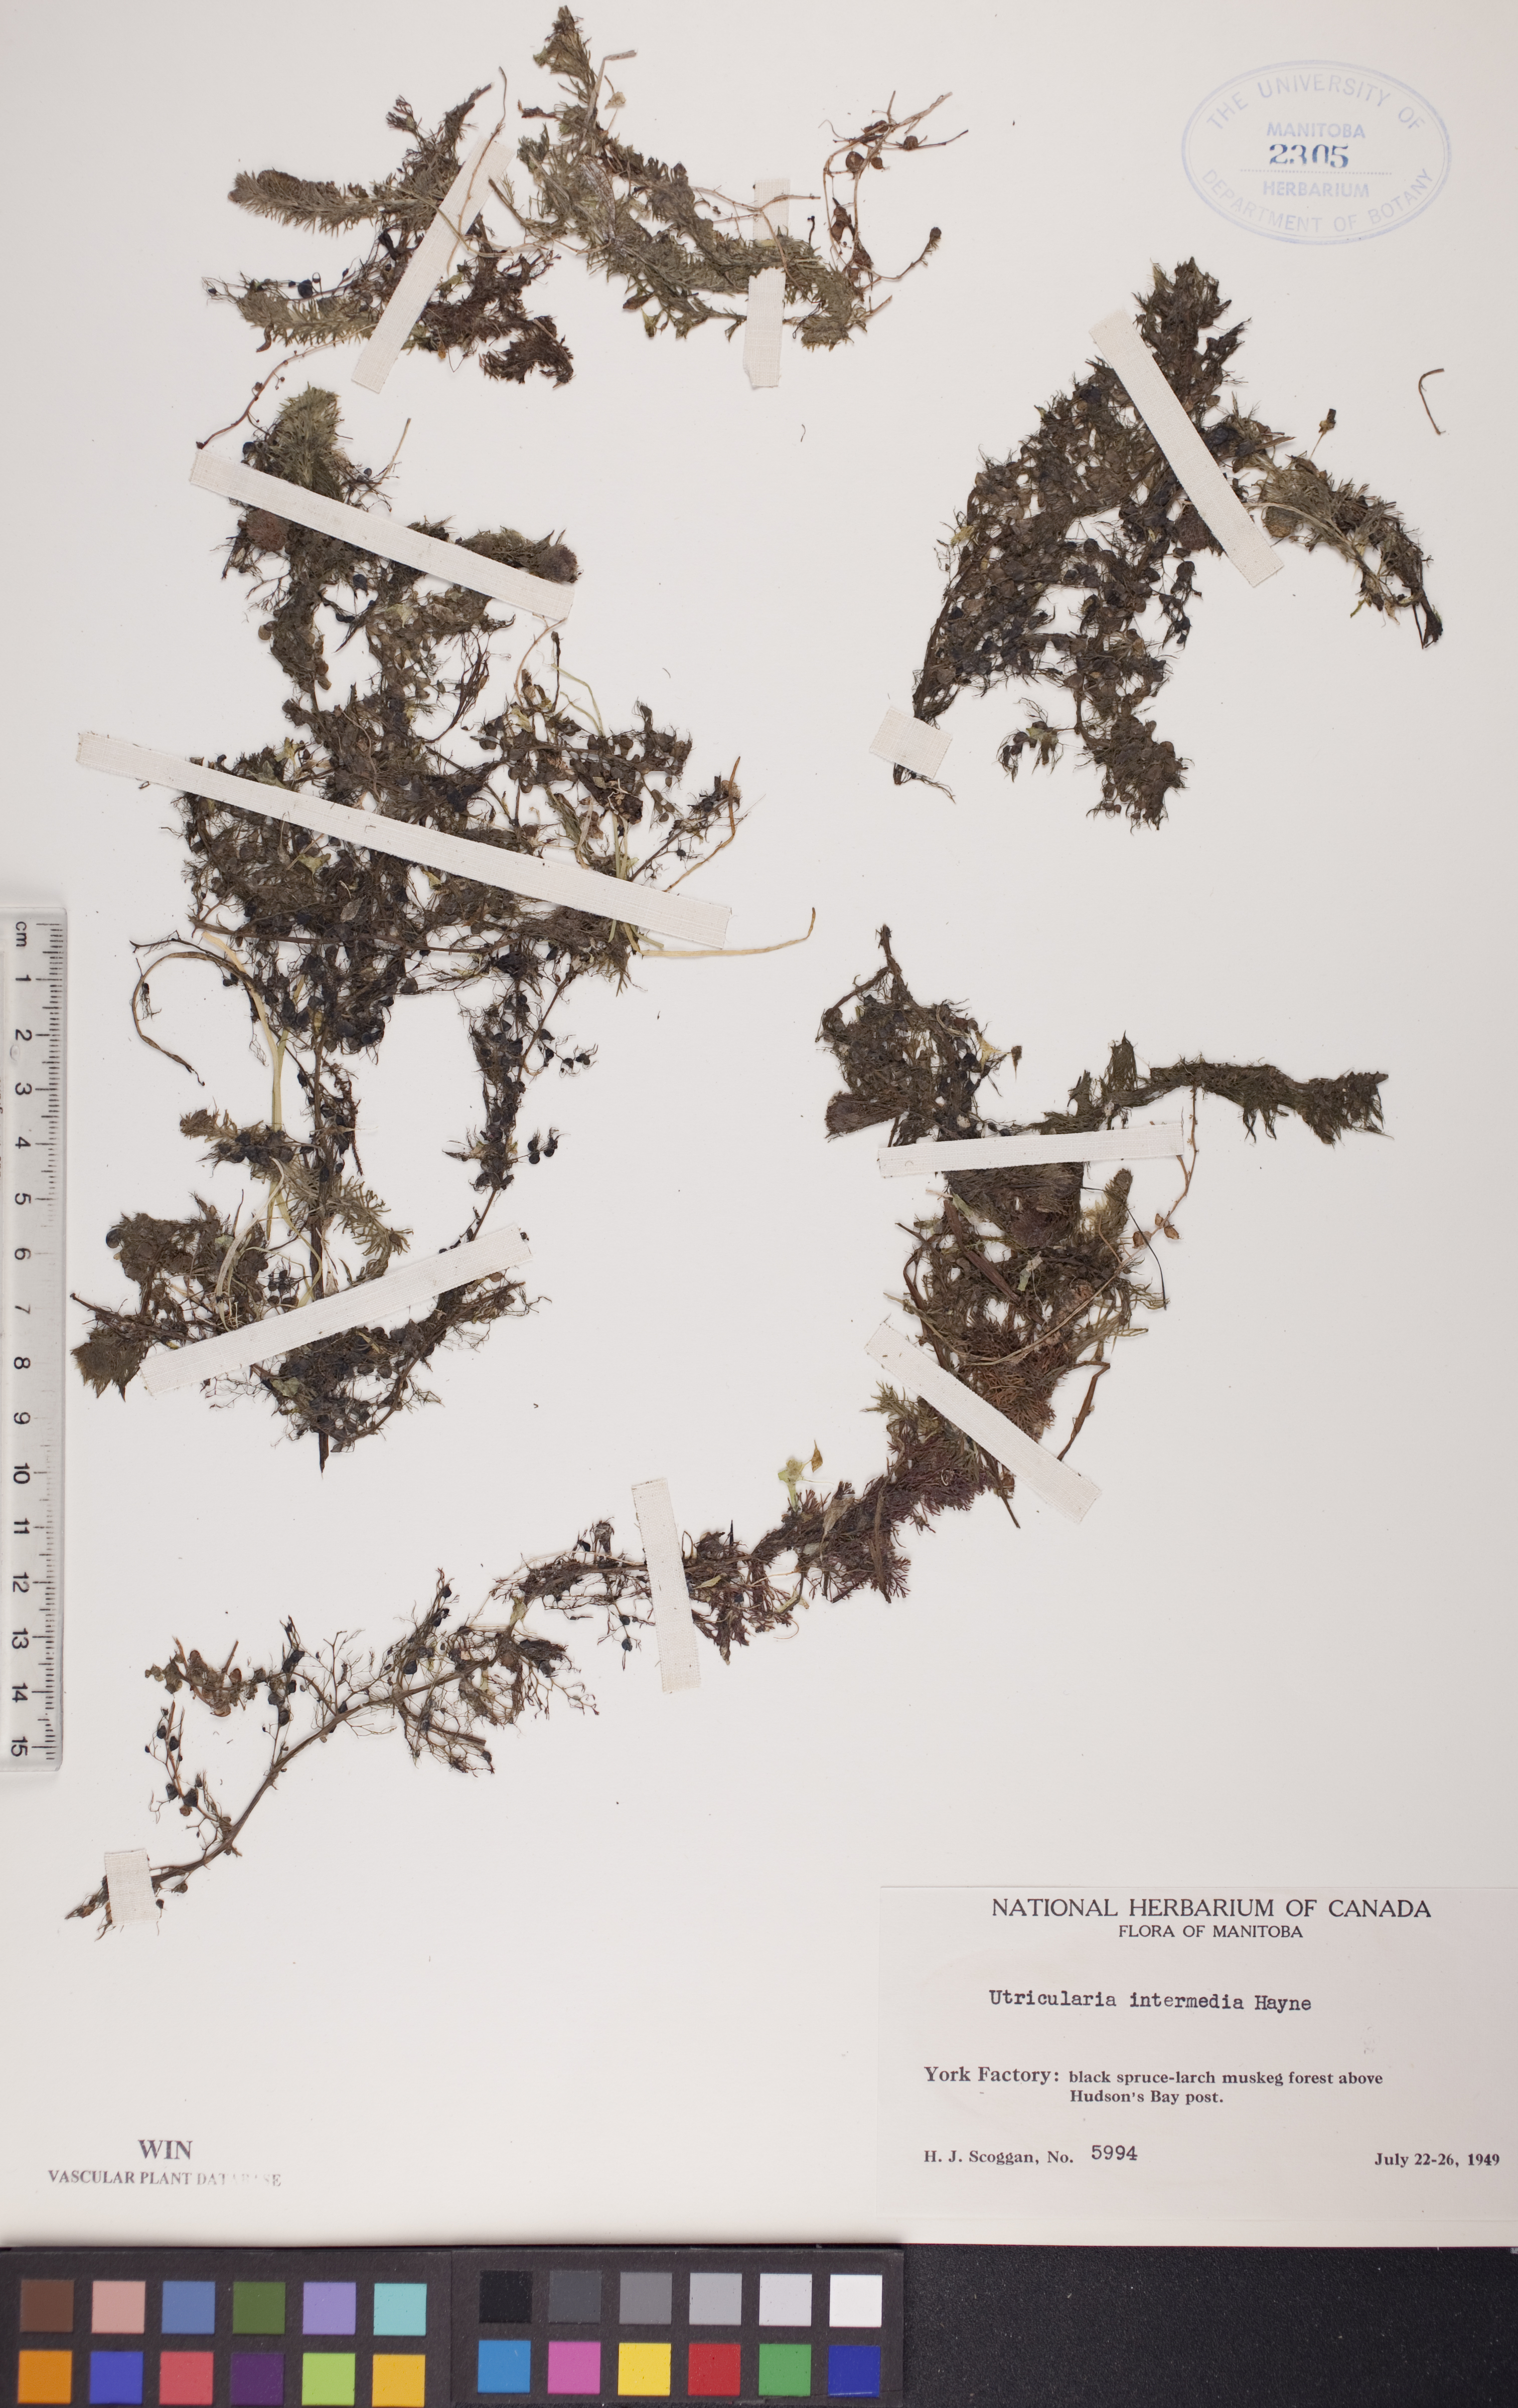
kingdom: Plantae
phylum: Tracheophyta
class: Magnoliopsida
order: Lamiales
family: Lentibulariaceae
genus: Utricularia
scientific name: Utricularia intermedia
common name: Intermediate bladderwort
